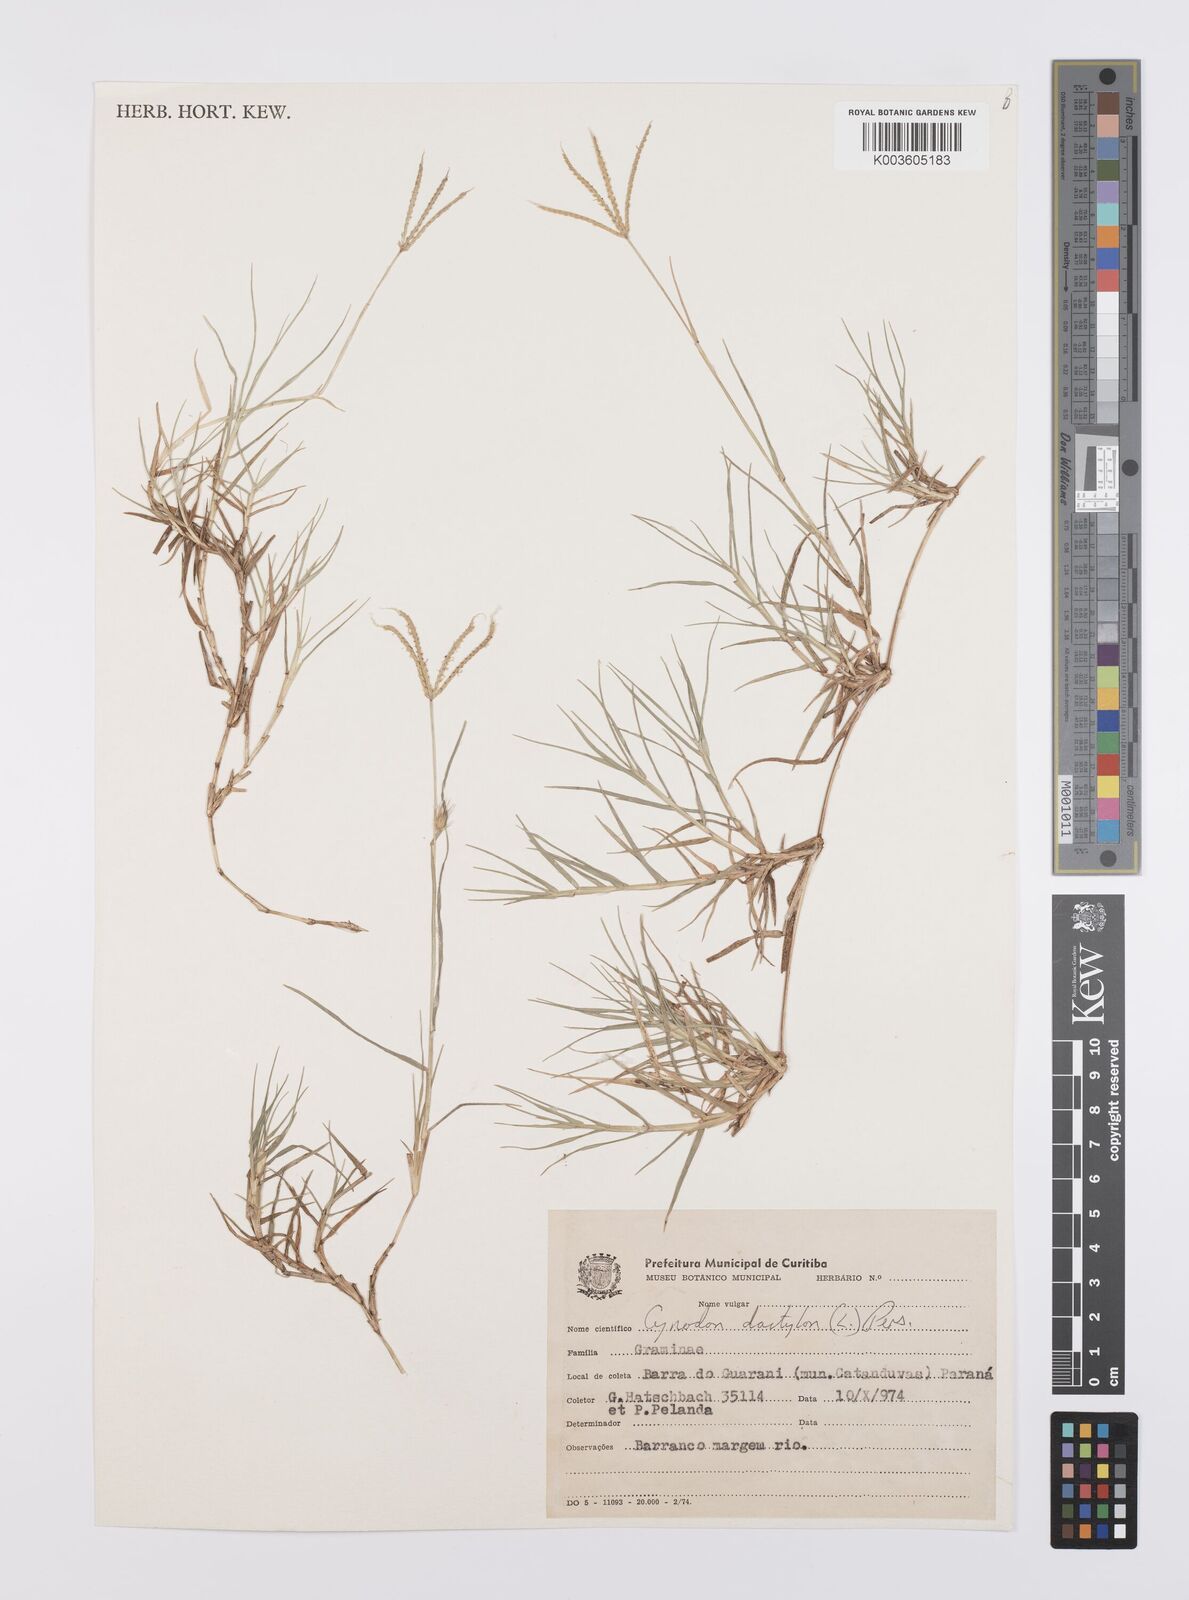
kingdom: Plantae
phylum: Tracheophyta
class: Liliopsida
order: Poales
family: Poaceae
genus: Cynodon
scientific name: Cynodon dactylon
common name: Bermuda grass
